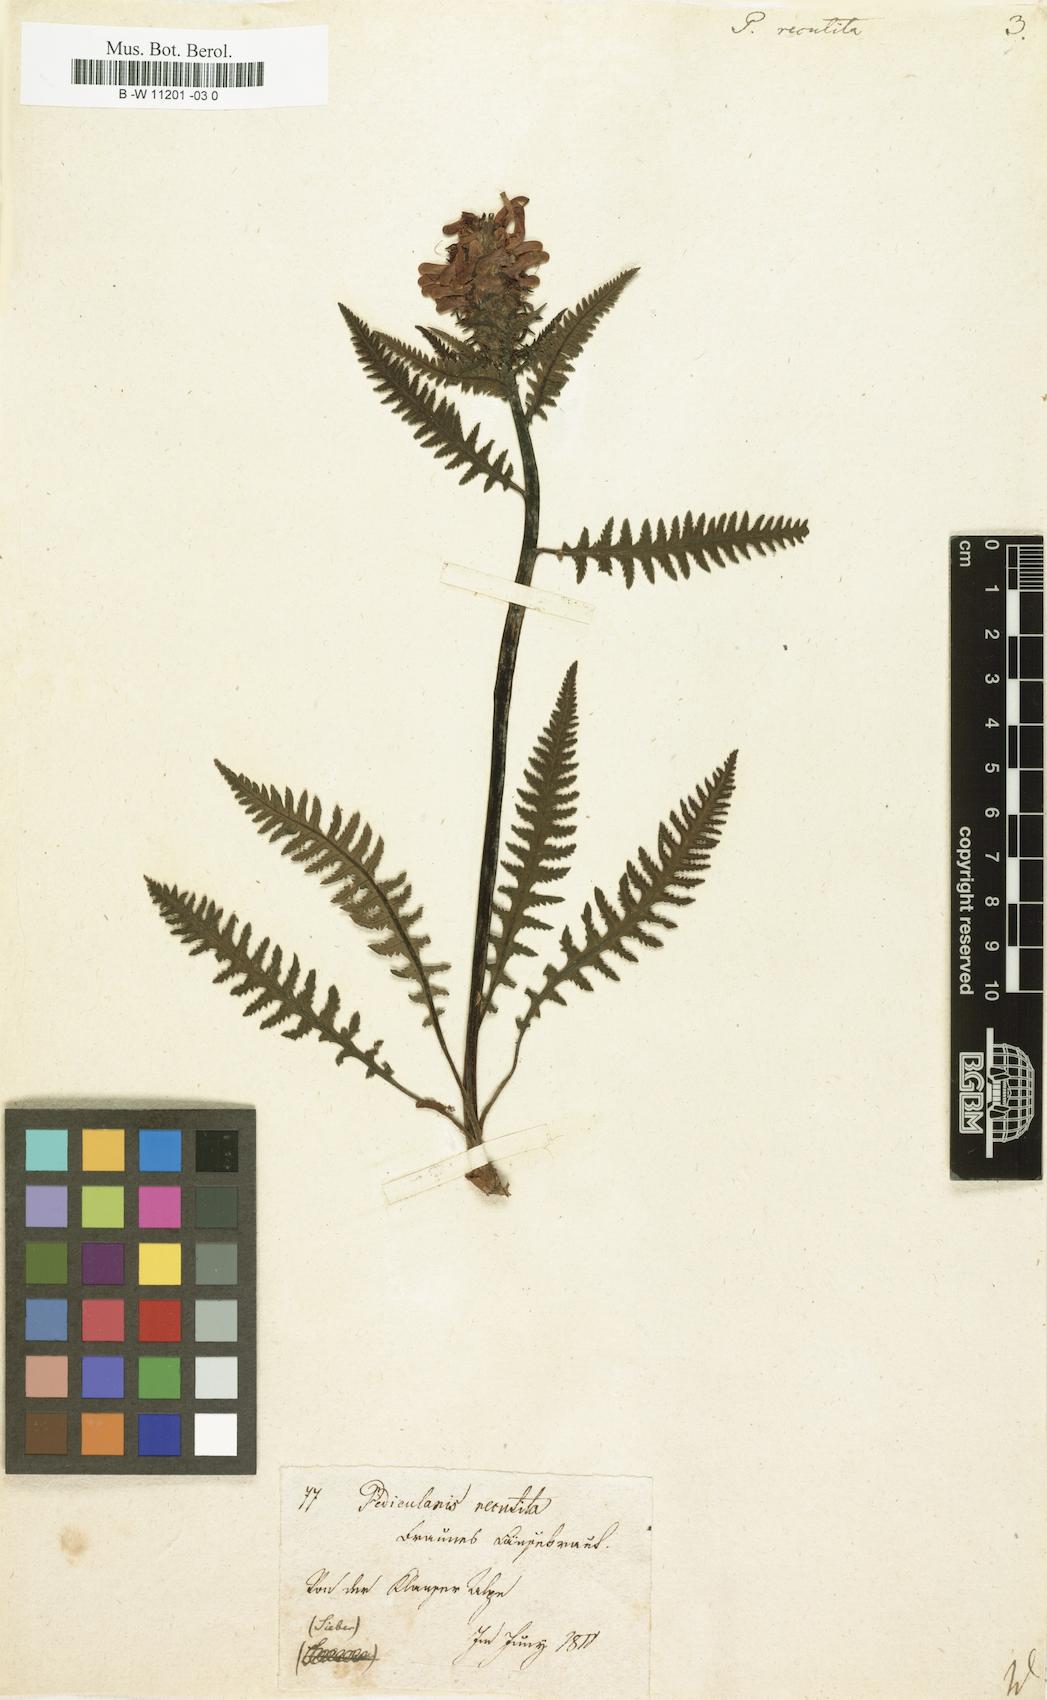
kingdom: Plantae
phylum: Tracheophyta
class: Magnoliopsida
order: Lamiales
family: Orobanchaceae
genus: Pedicularis
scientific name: Pedicularis recutita
